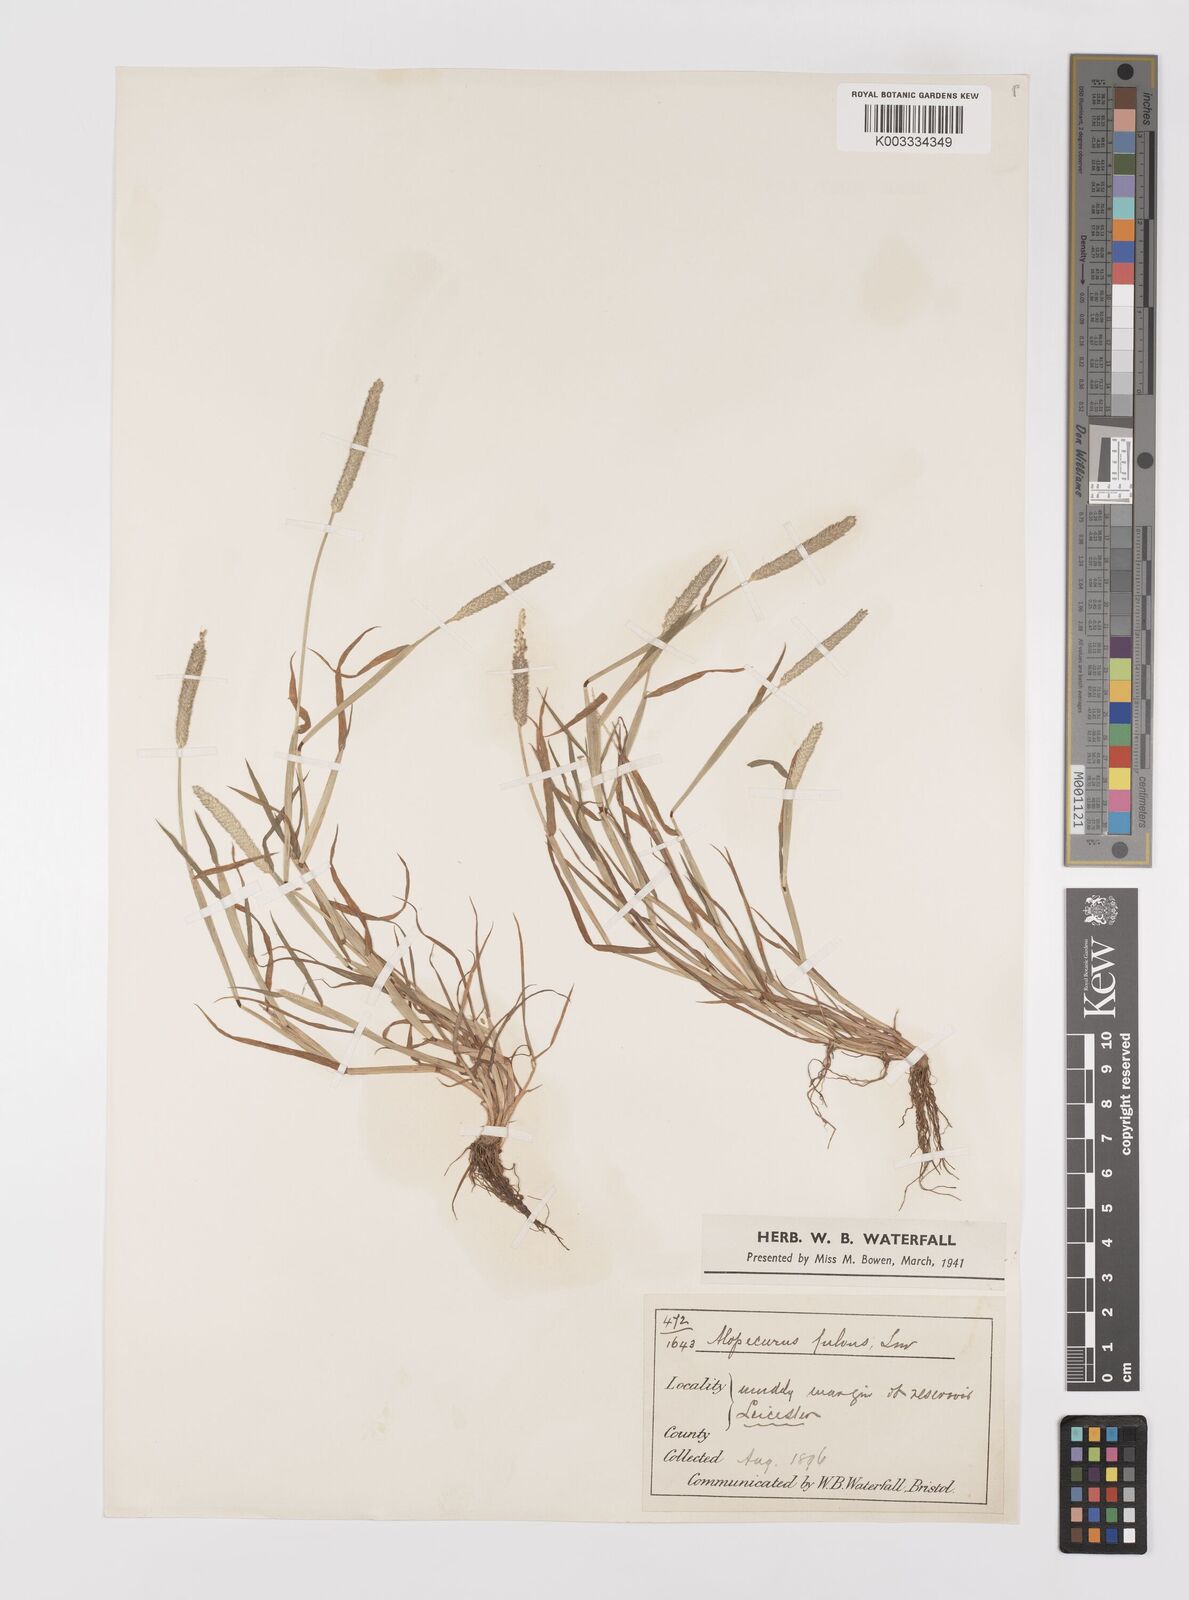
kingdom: Plantae
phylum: Tracheophyta
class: Liliopsida
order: Poales
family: Poaceae
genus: Alopecurus
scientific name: Alopecurus aequalis
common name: Orange foxtail
